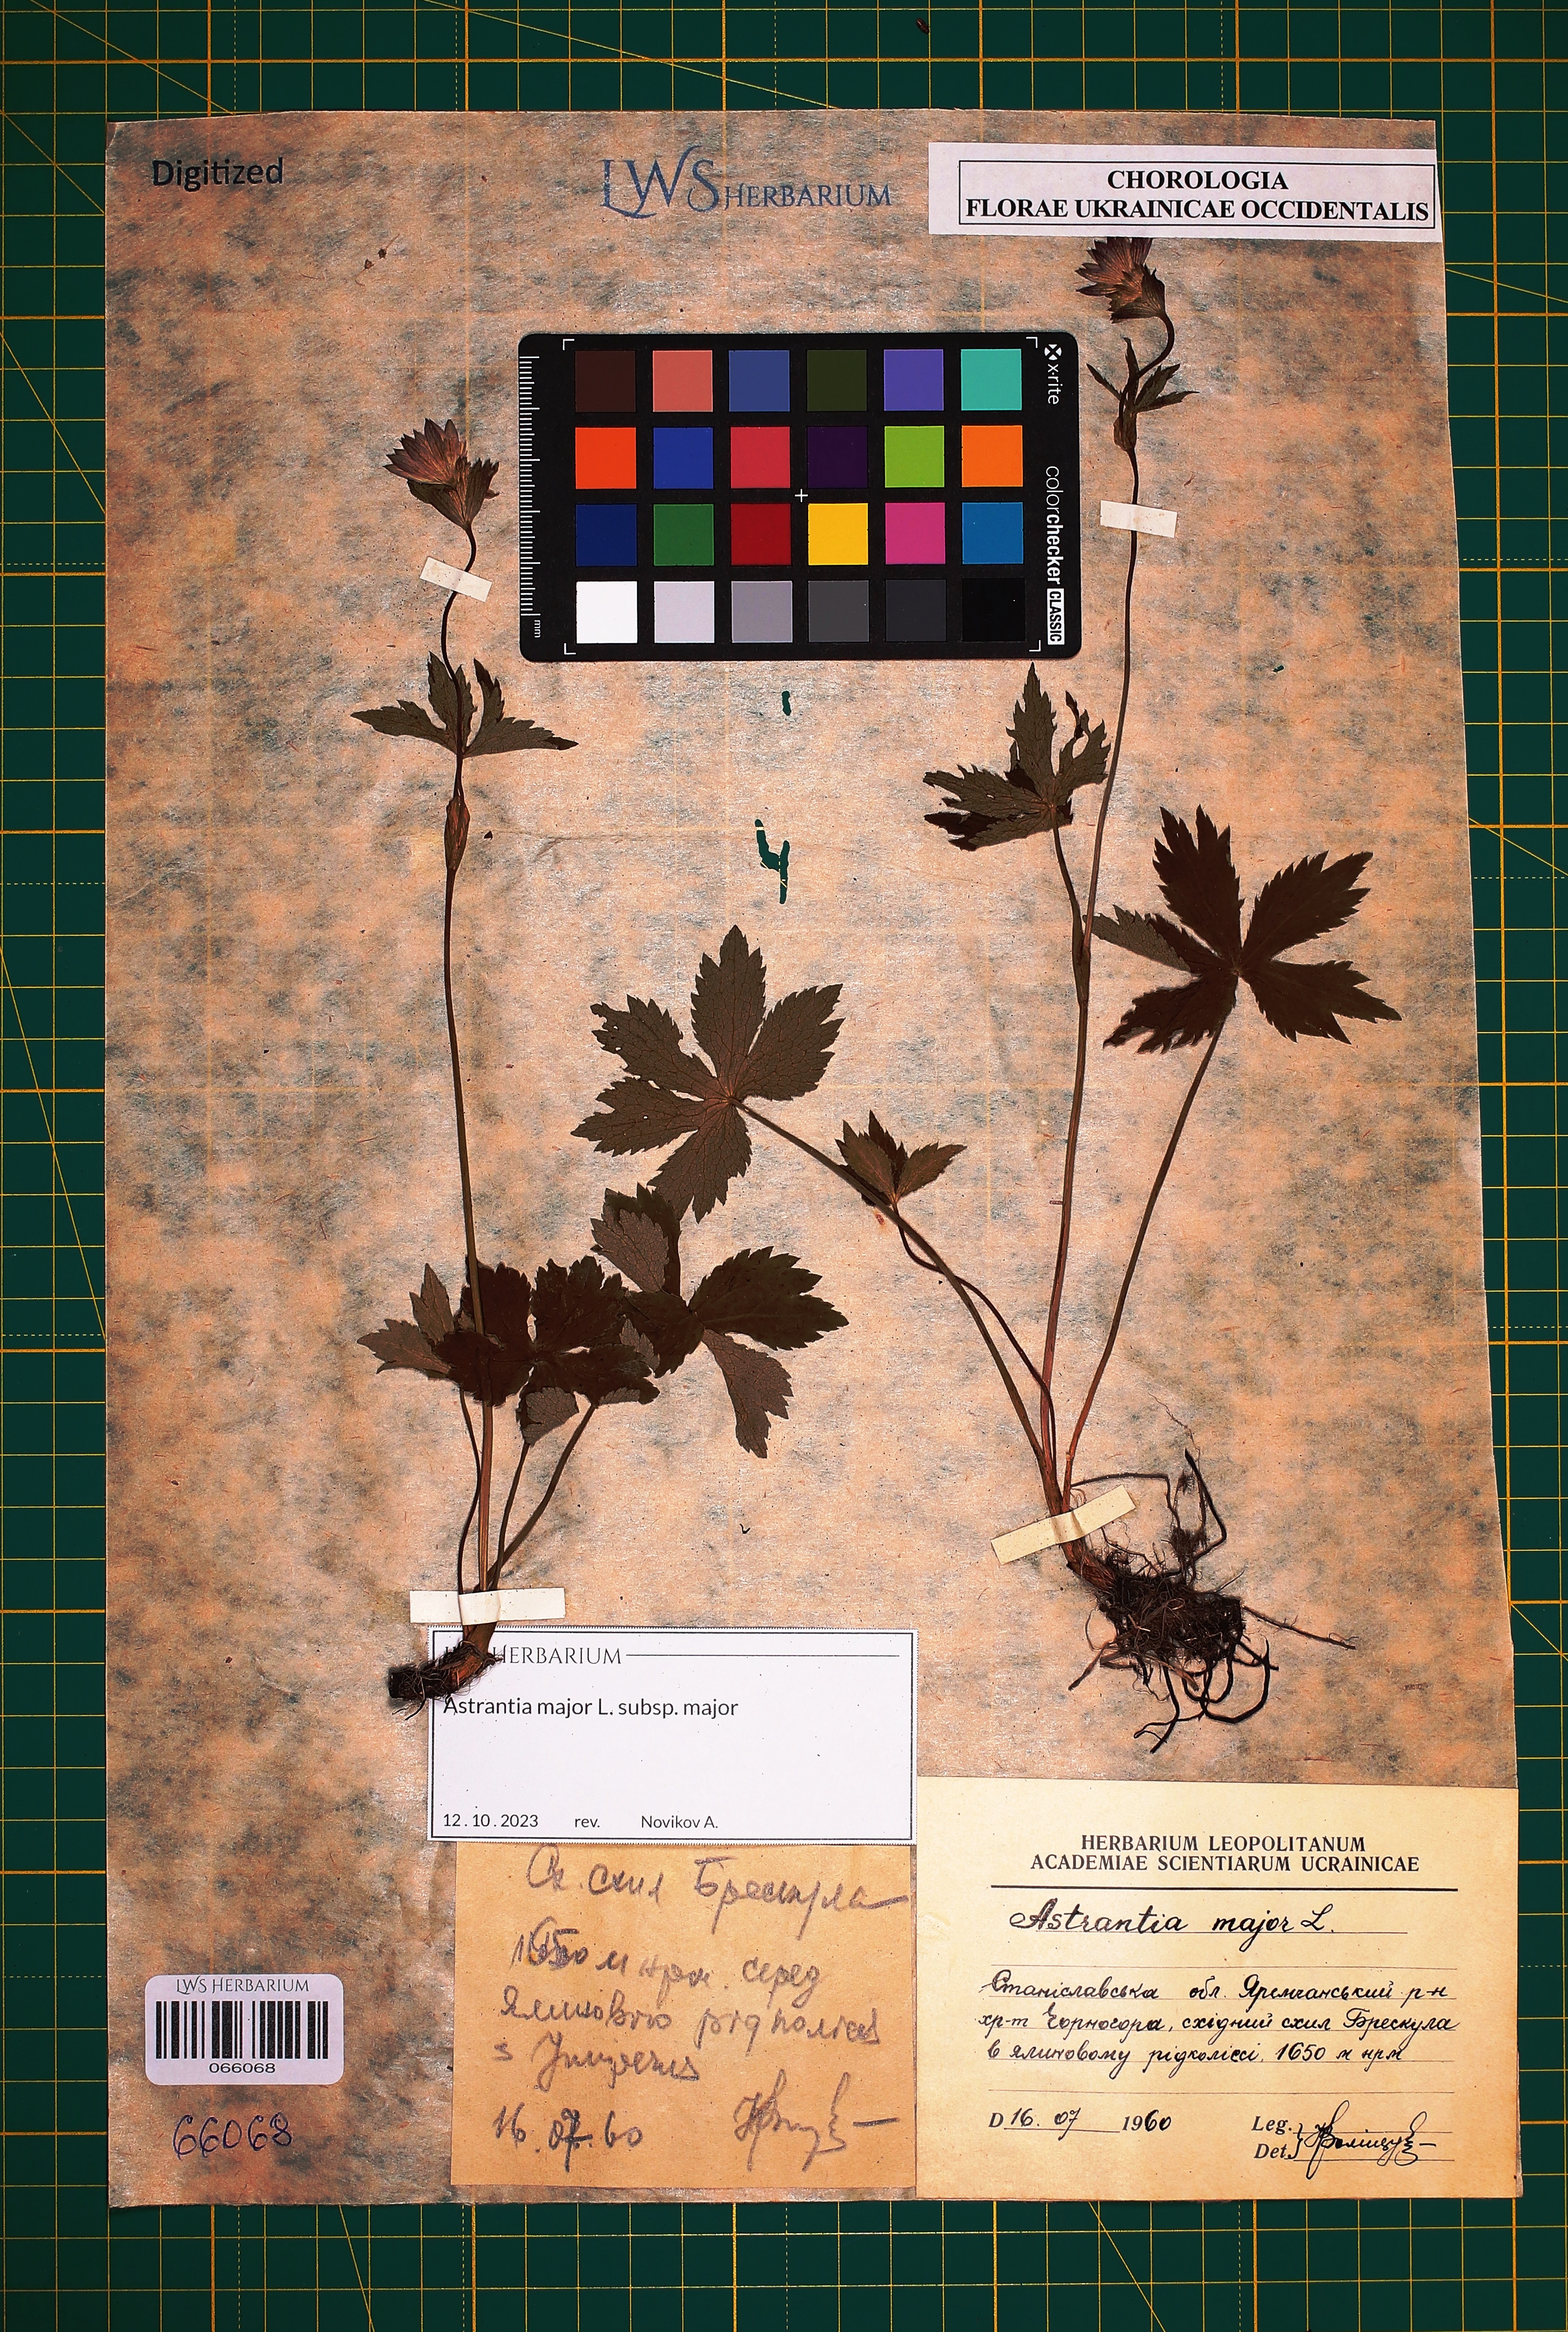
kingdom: Plantae
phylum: Tracheophyta
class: Magnoliopsida
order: Apiales
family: Apiaceae
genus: Astrantia
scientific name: Astrantia major
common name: Greater masterwort
